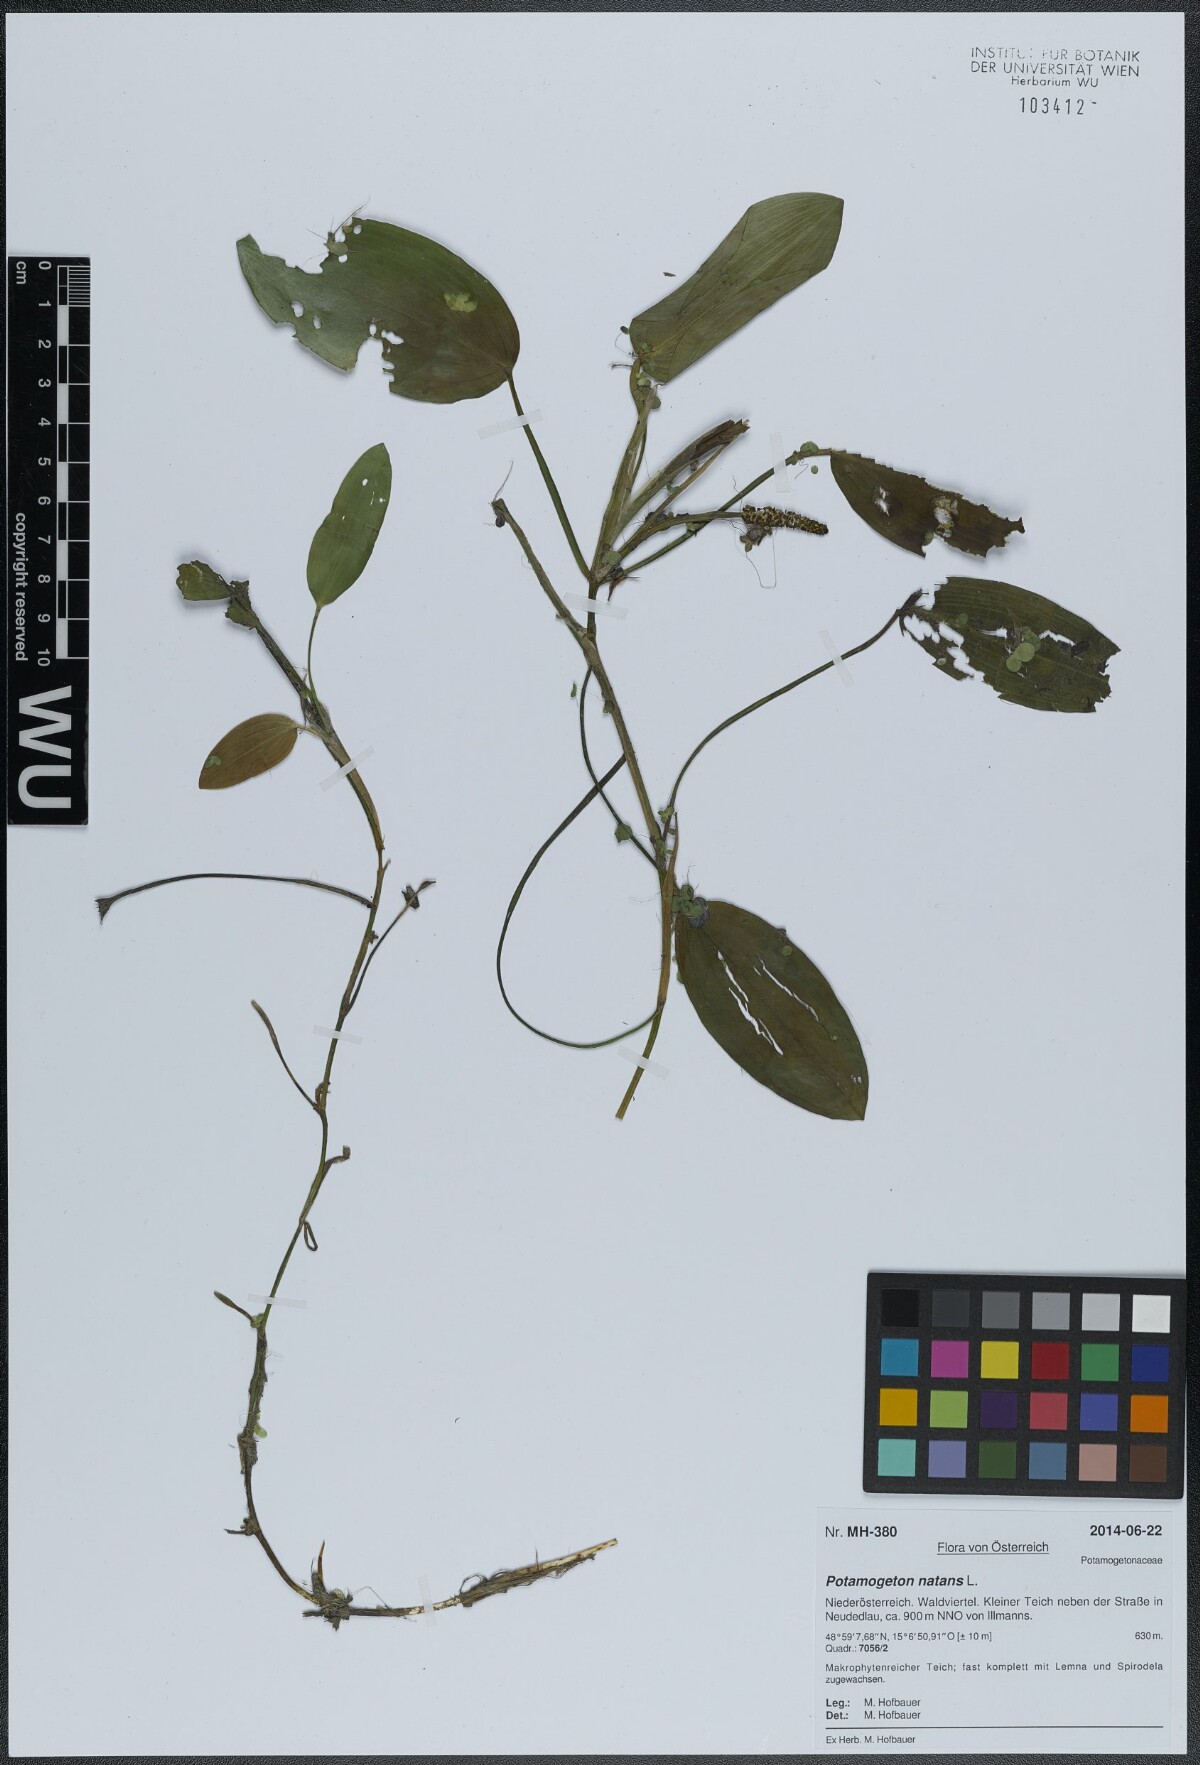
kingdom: Plantae
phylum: Tracheophyta
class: Liliopsida
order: Alismatales
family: Potamogetonaceae
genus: Potamogeton
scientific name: Potamogeton natans
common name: Broad-leaved pondweed
